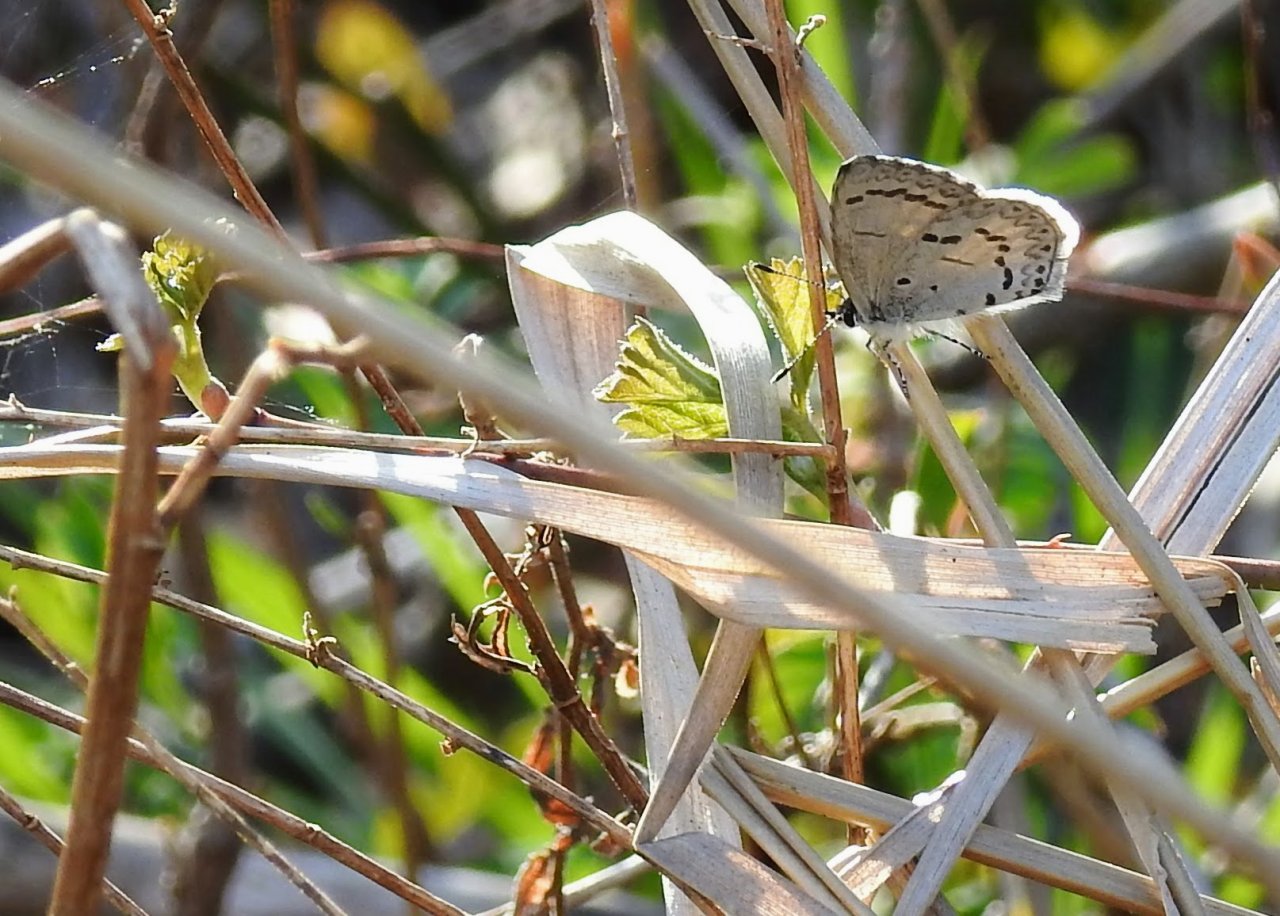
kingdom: Animalia
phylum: Arthropoda
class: Insecta
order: Lepidoptera
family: Lycaenidae
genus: Celastrina
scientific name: Celastrina
